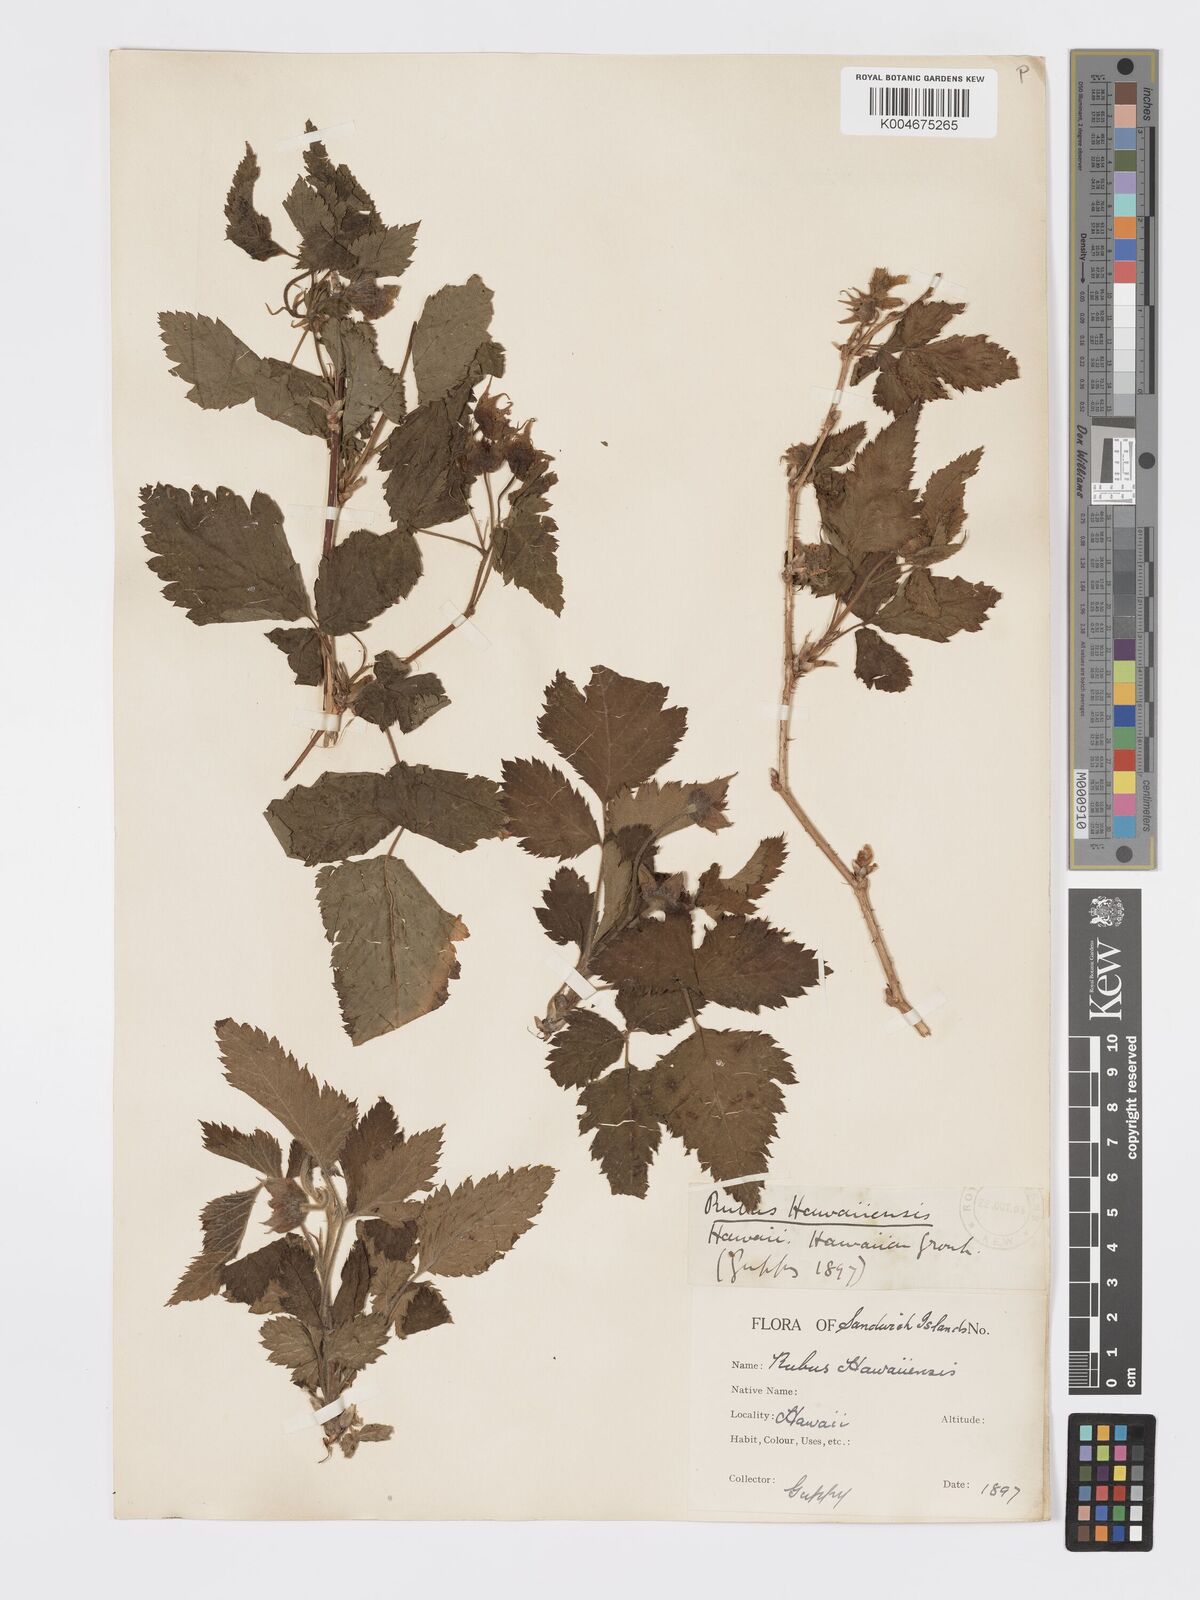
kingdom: Plantae
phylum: Tracheophyta
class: Magnoliopsida
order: Rosales
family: Rosaceae
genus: Rubus
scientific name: Rubus hawaiensis
